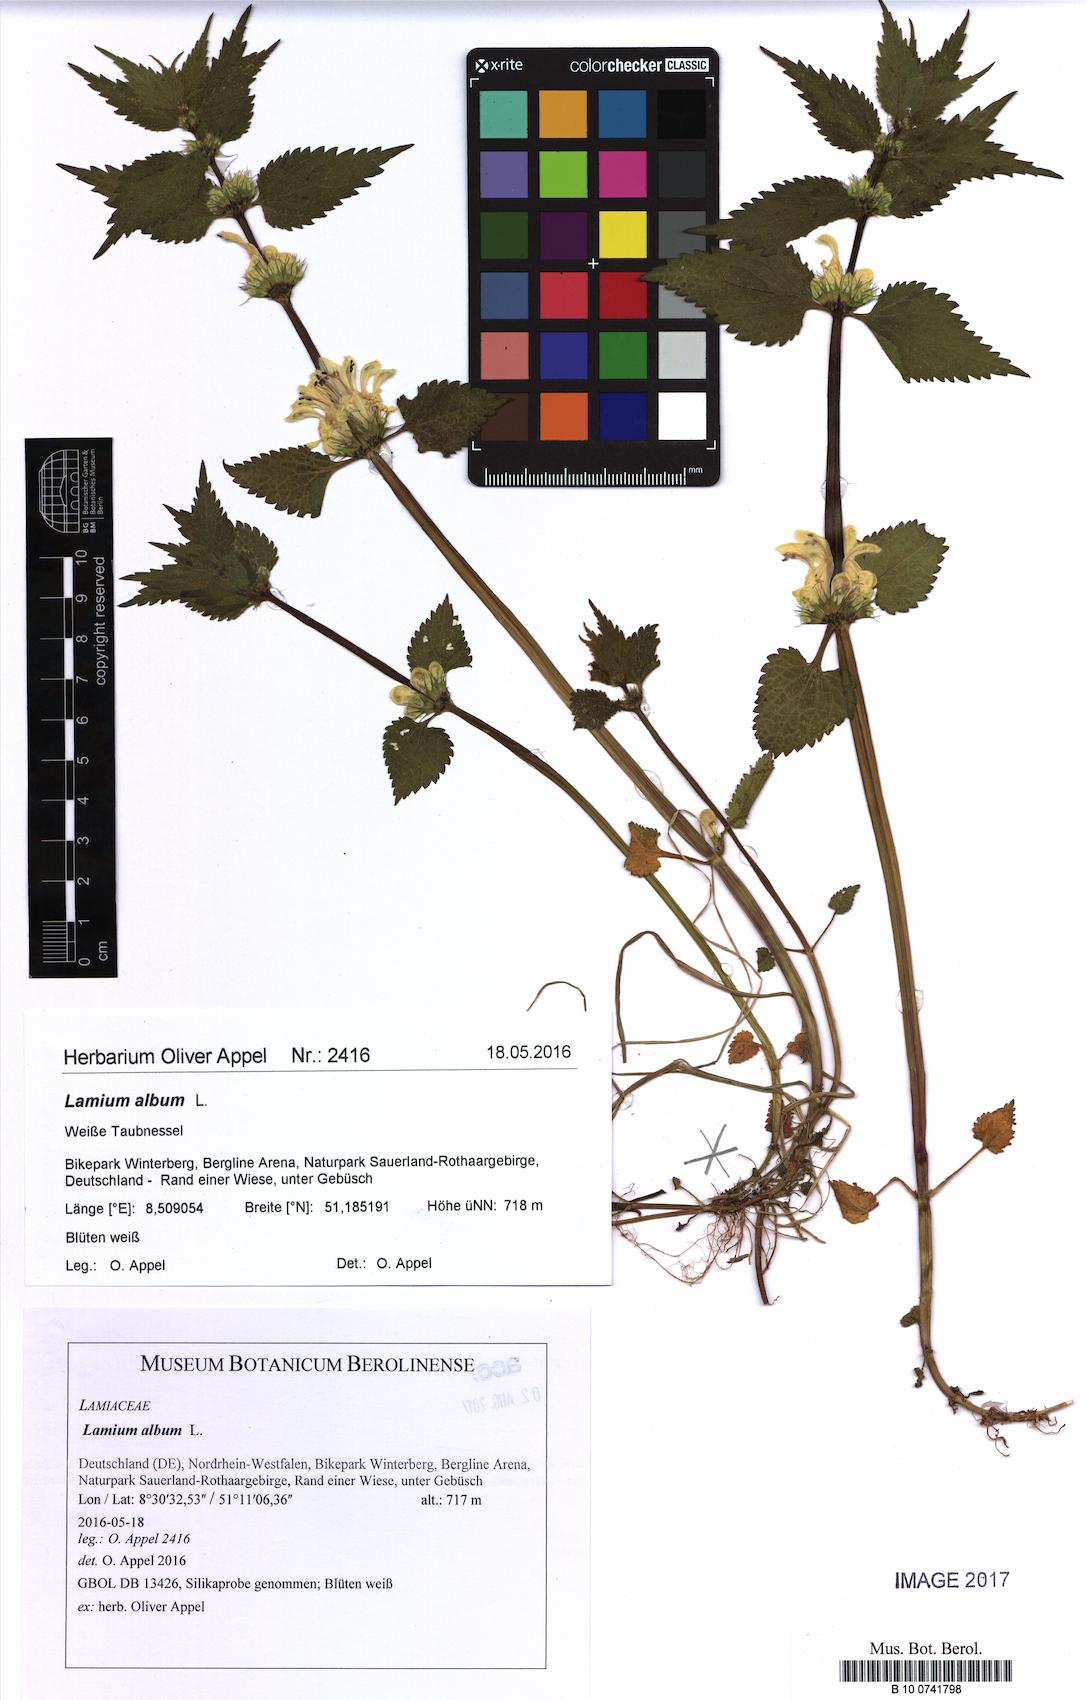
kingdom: Plantae
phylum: Tracheophyta
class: Magnoliopsida
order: Lamiales
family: Lamiaceae
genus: Lamium
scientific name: Lamium album
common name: White dead-nettle
